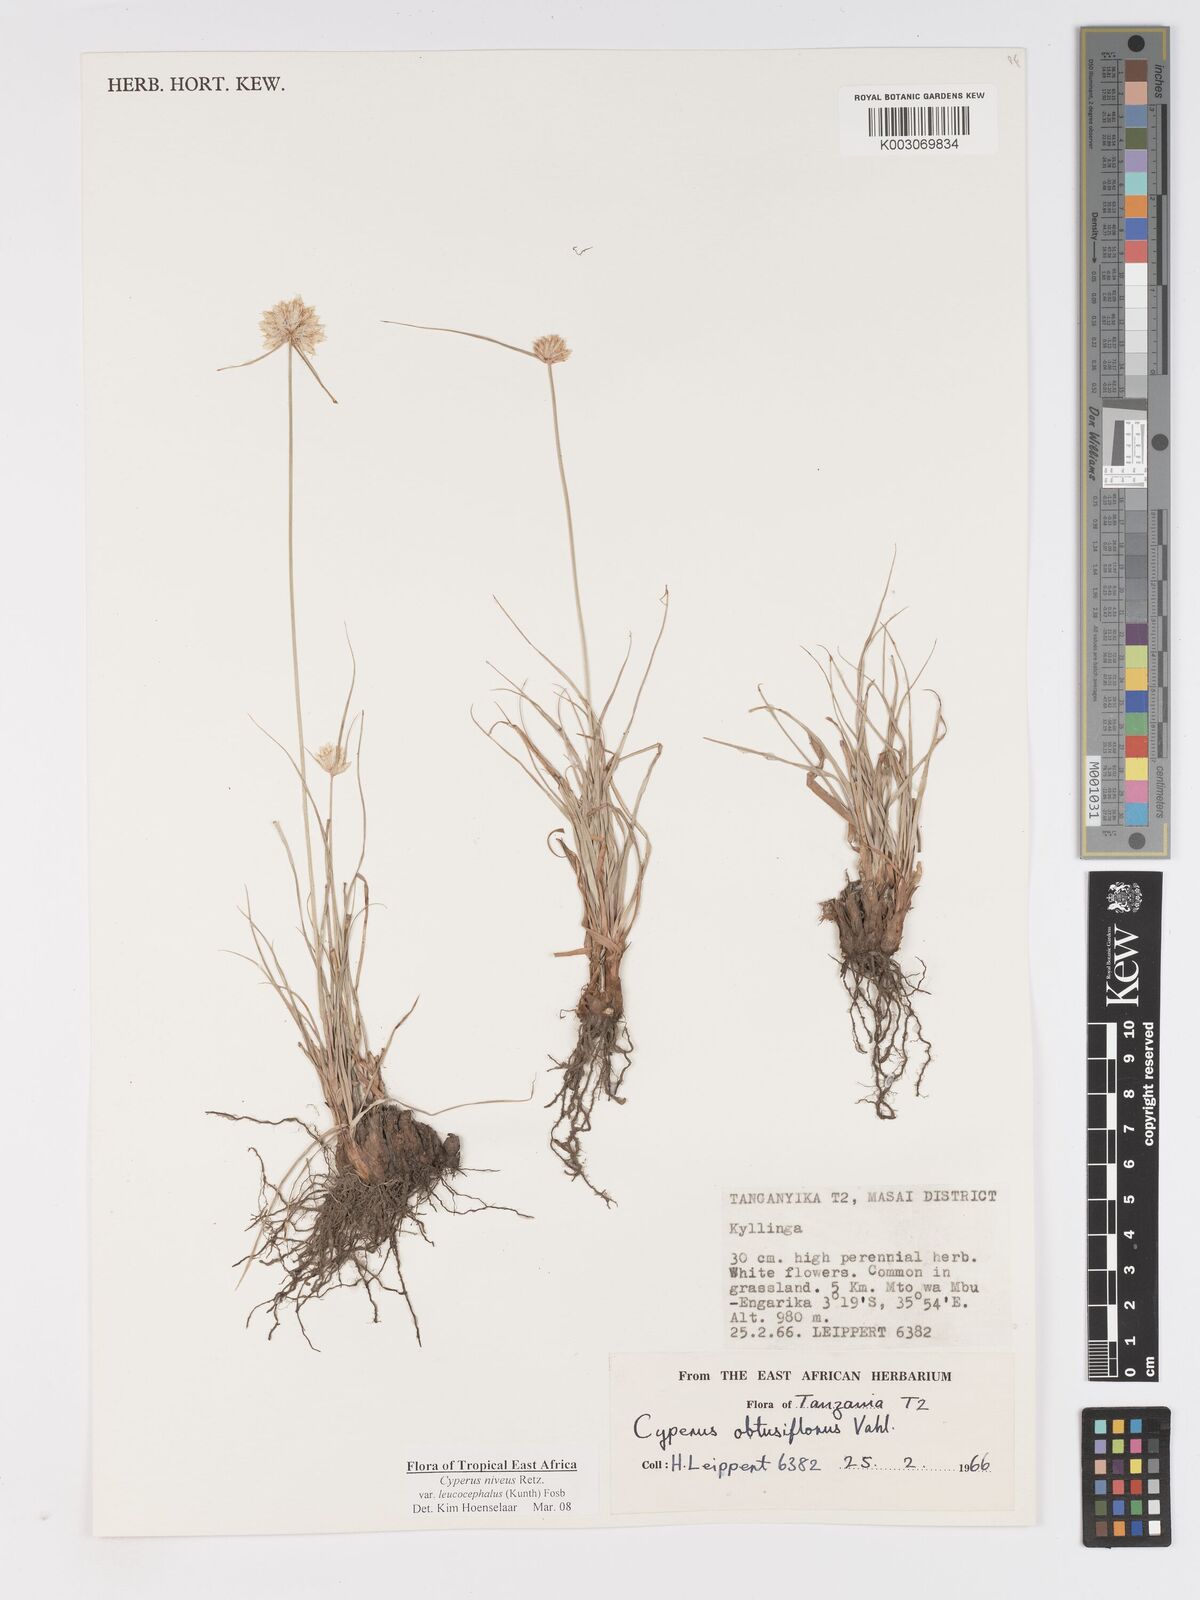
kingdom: Plantae
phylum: Tracheophyta
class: Liliopsida
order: Poales
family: Cyperaceae
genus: Cyperus
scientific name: Cyperus niveus
